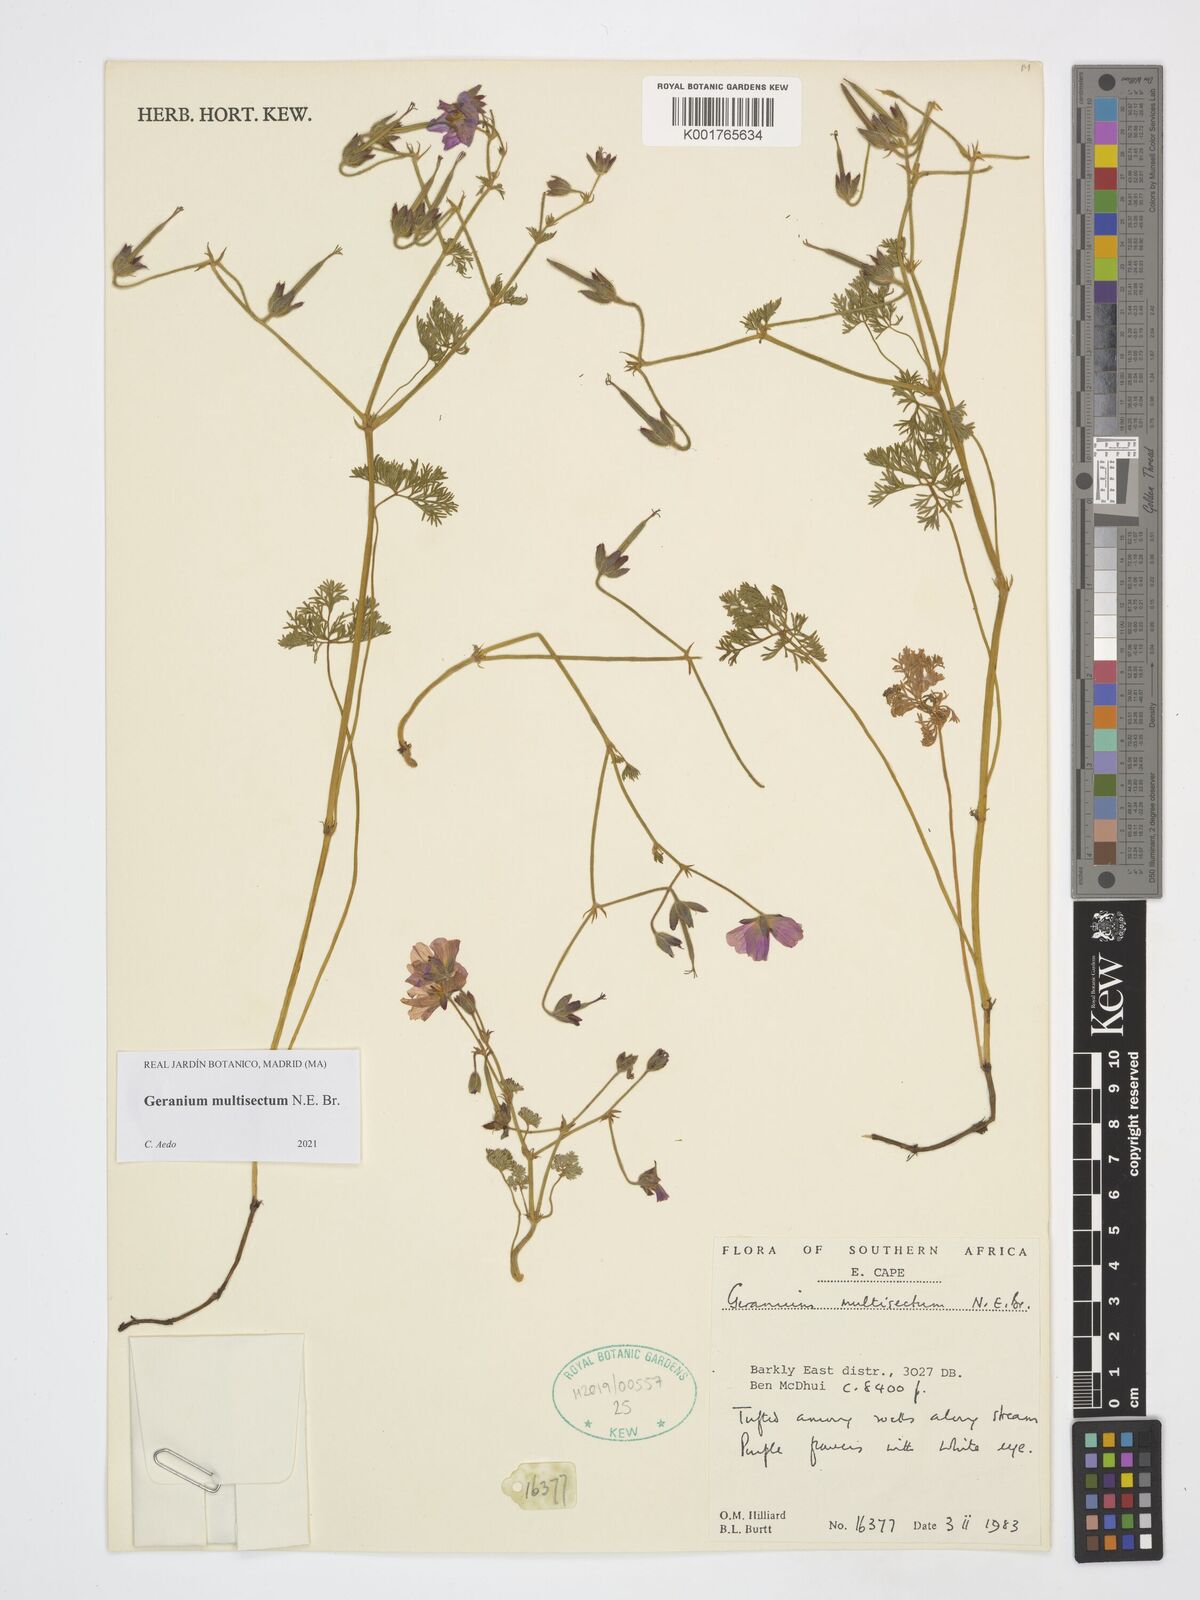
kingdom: Plantae
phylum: Tracheophyta
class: Magnoliopsida
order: Geraniales
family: Geraniaceae
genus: Geranium
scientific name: Geranium multisectum
